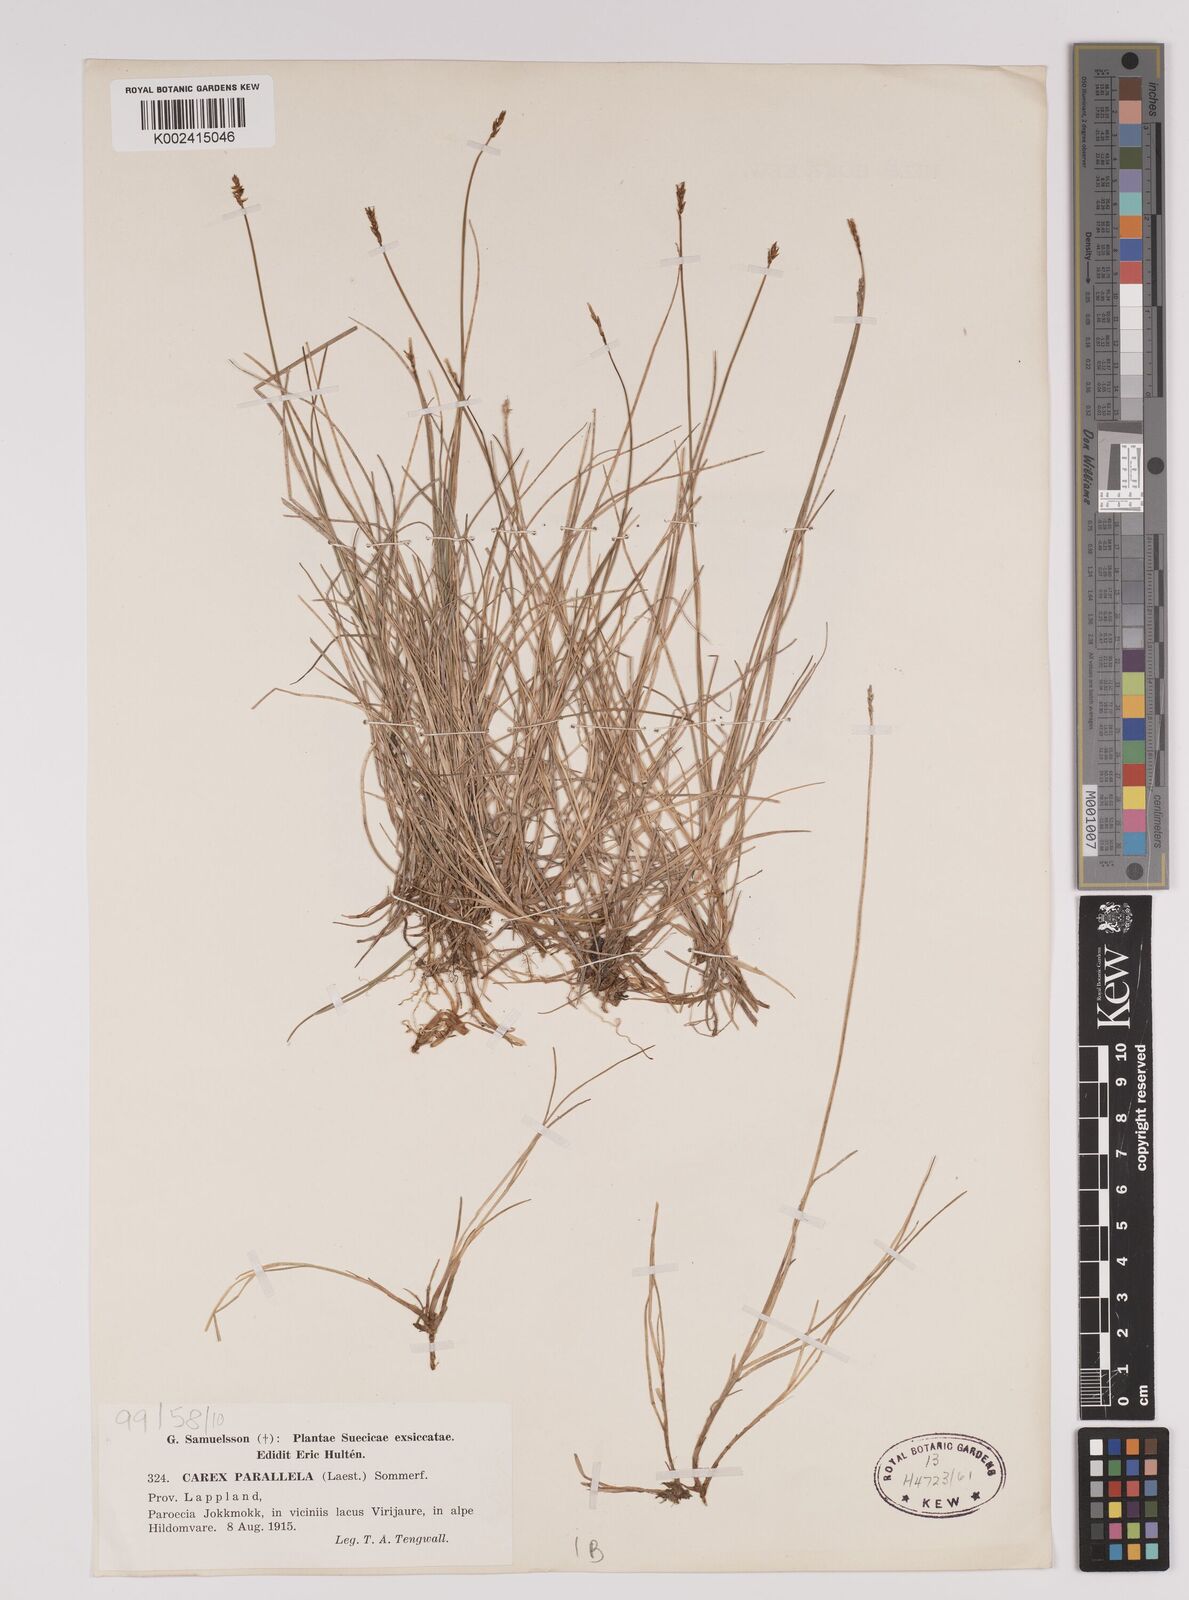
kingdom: Plantae
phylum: Tracheophyta
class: Liliopsida
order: Poales
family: Cyperaceae
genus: Carex
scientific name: Carex parallela
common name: Parallel sedge
